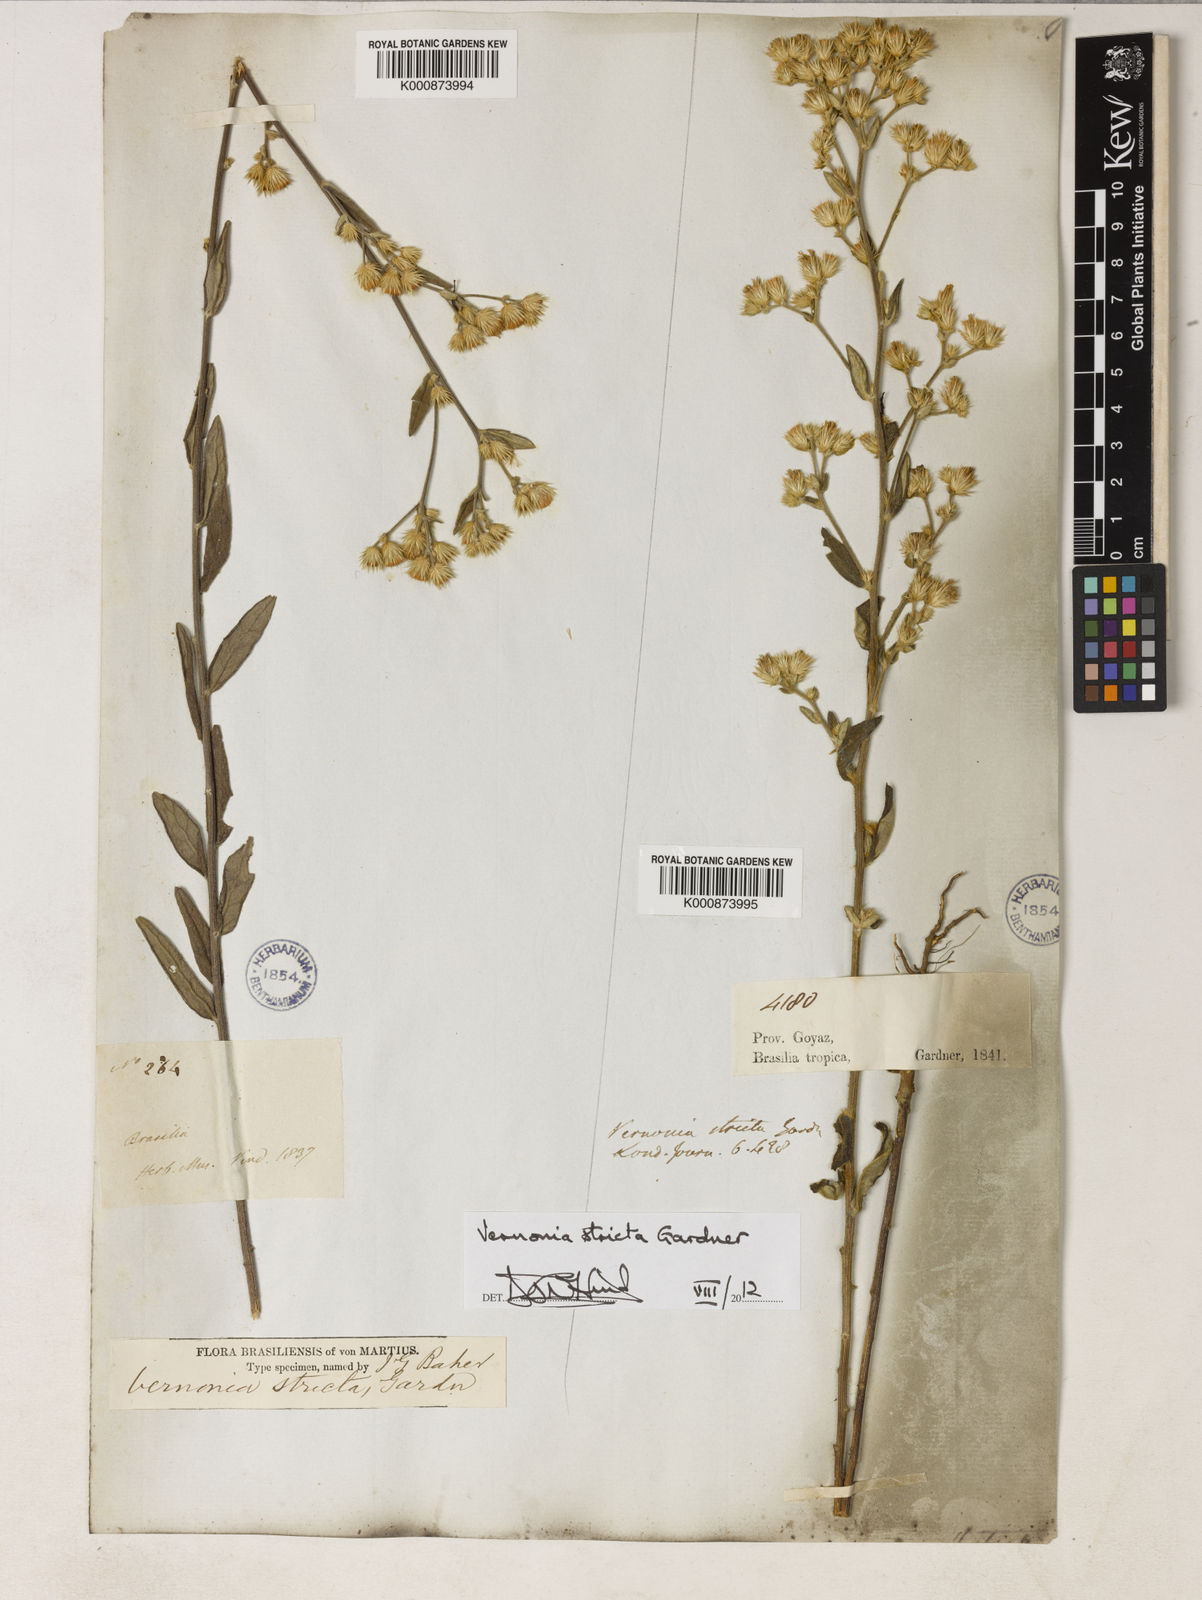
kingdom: Plantae
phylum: Tracheophyta
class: Magnoliopsida
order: Asterales
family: Asteraceae
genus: Echinocoryne
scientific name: Echinocoryne stricta
